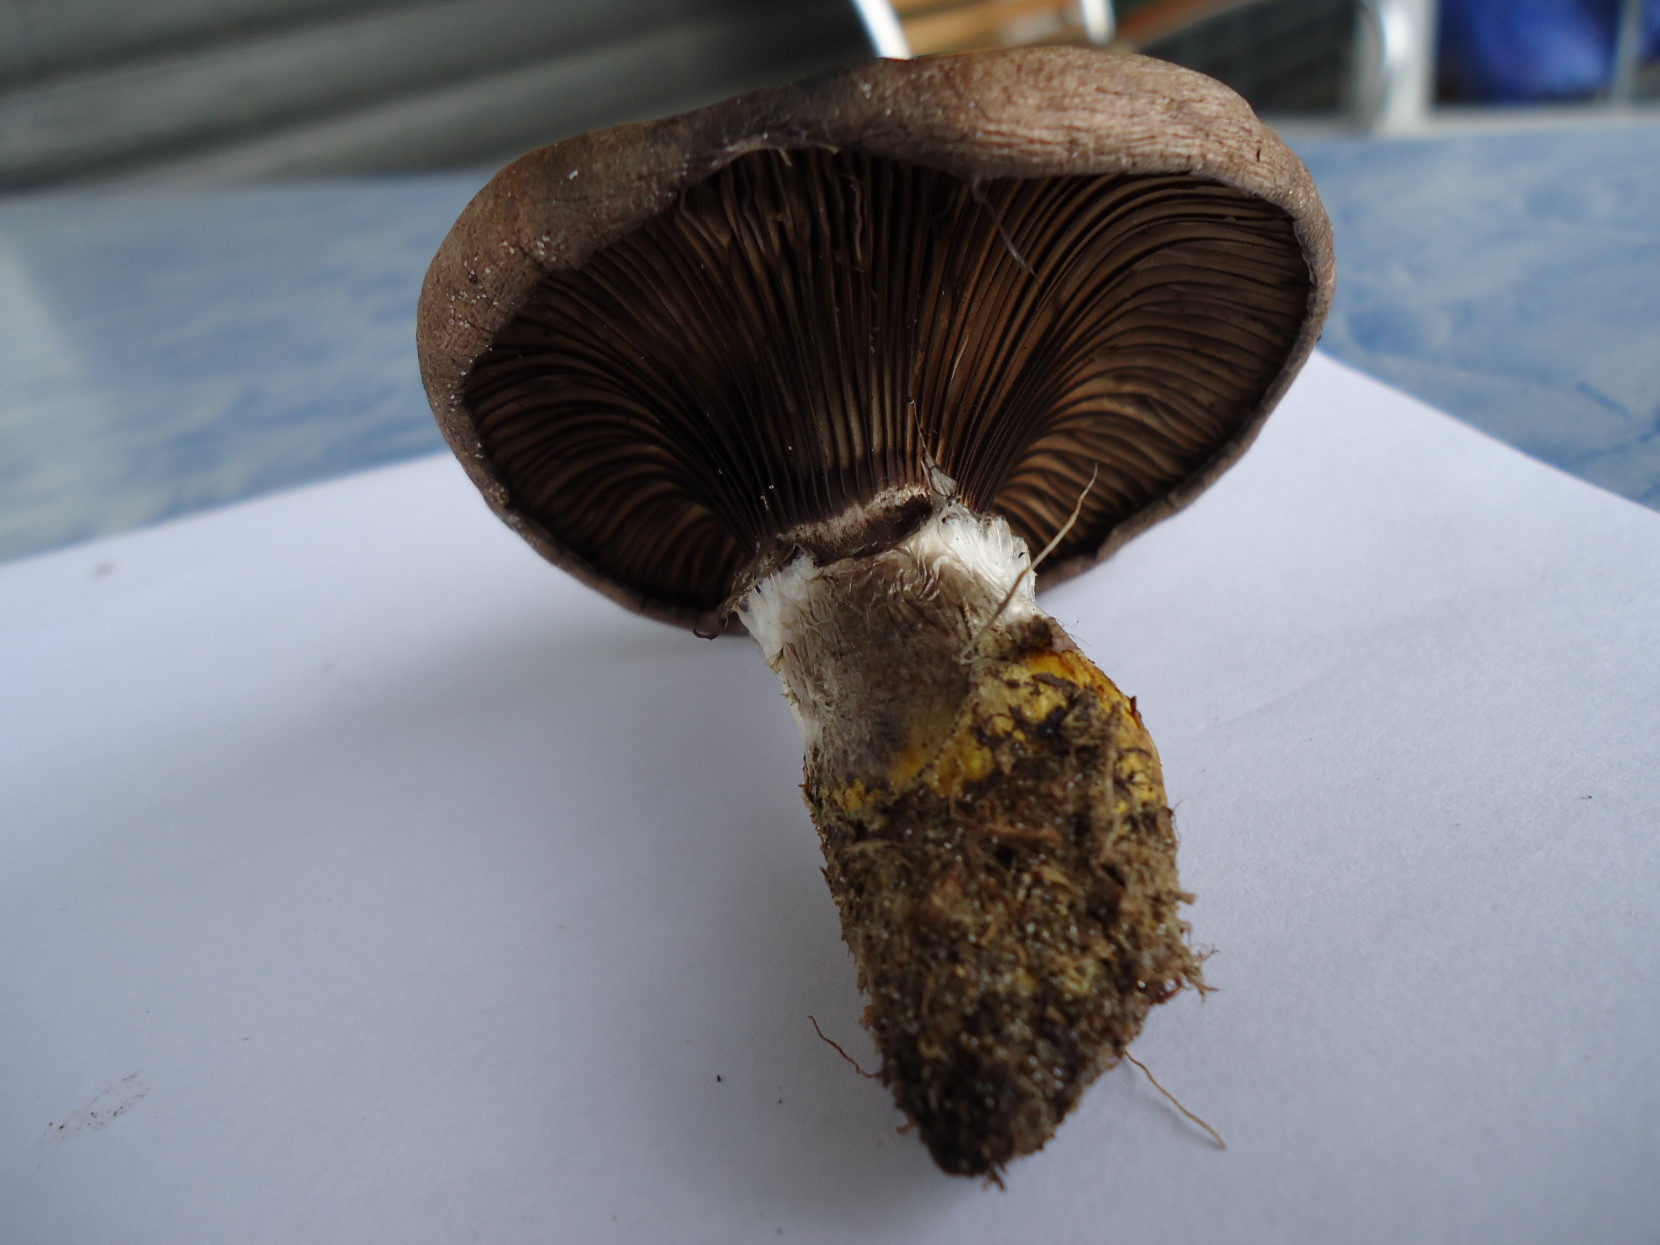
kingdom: Fungi
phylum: Basidiomycota
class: Agaricomycetes
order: Boletales
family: Gomphidiaceae
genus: Gomphidius
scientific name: Gomphidius glutinosus
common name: grå slimslør
